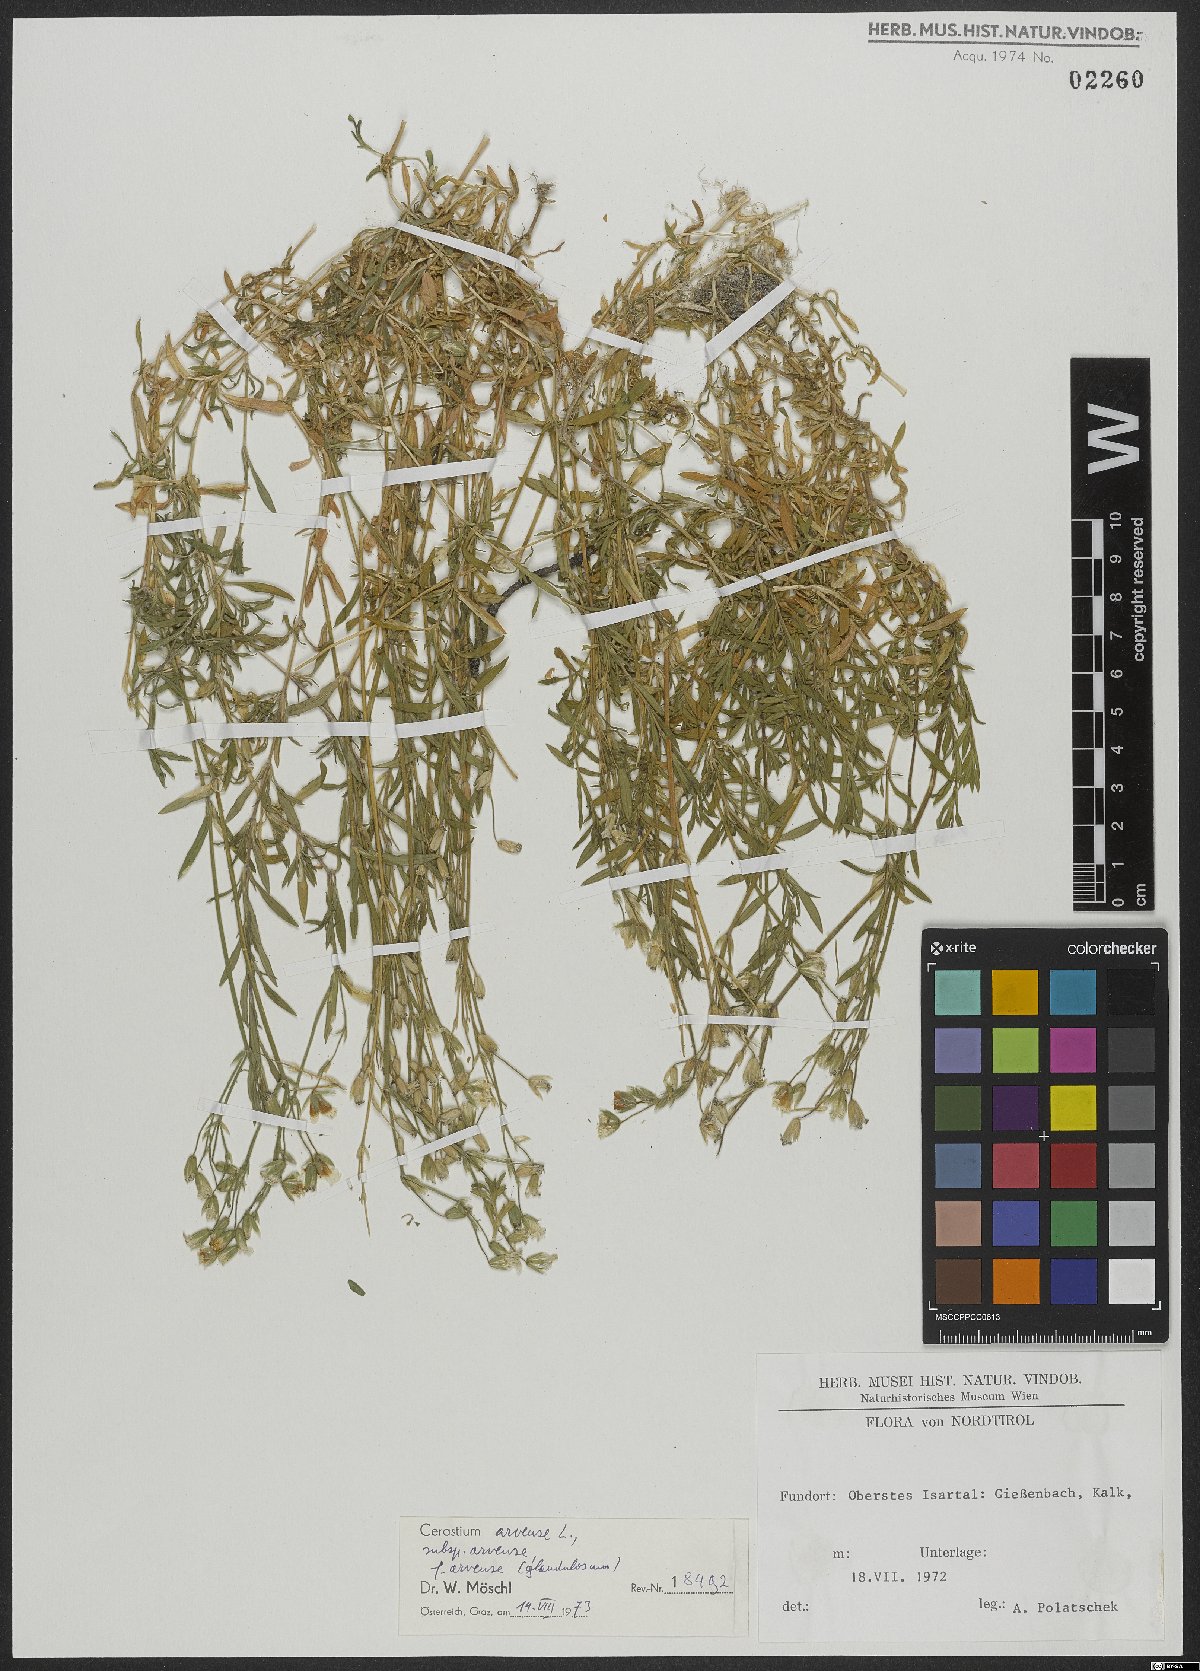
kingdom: Plantae
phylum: Tracheophyta
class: Magnoliopsida
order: Caryophyllales
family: Caryophyllaceae
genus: Cerastium
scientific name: Cerastium arvense
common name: Field mouse-ear
